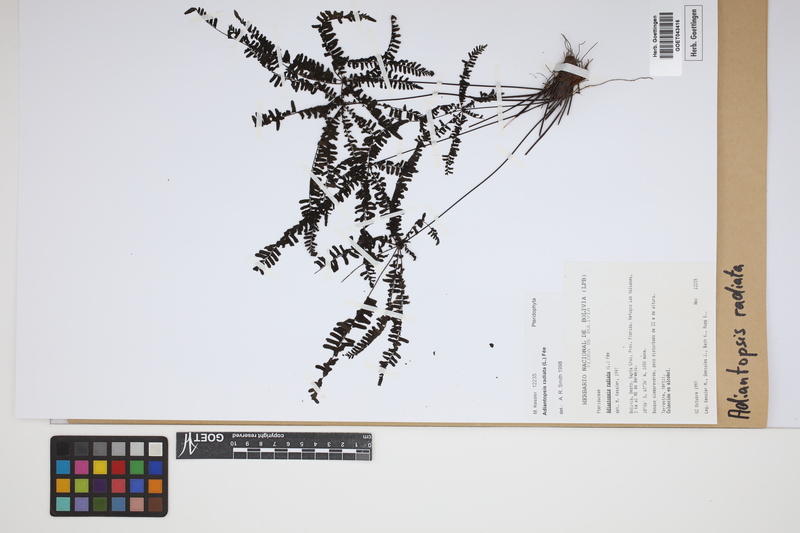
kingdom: Plantae
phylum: Tracheophyta
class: Polypodiopsida
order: Polypodiales
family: Pteridaceae
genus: Adiantopsis
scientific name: Adiantopsis radiata
